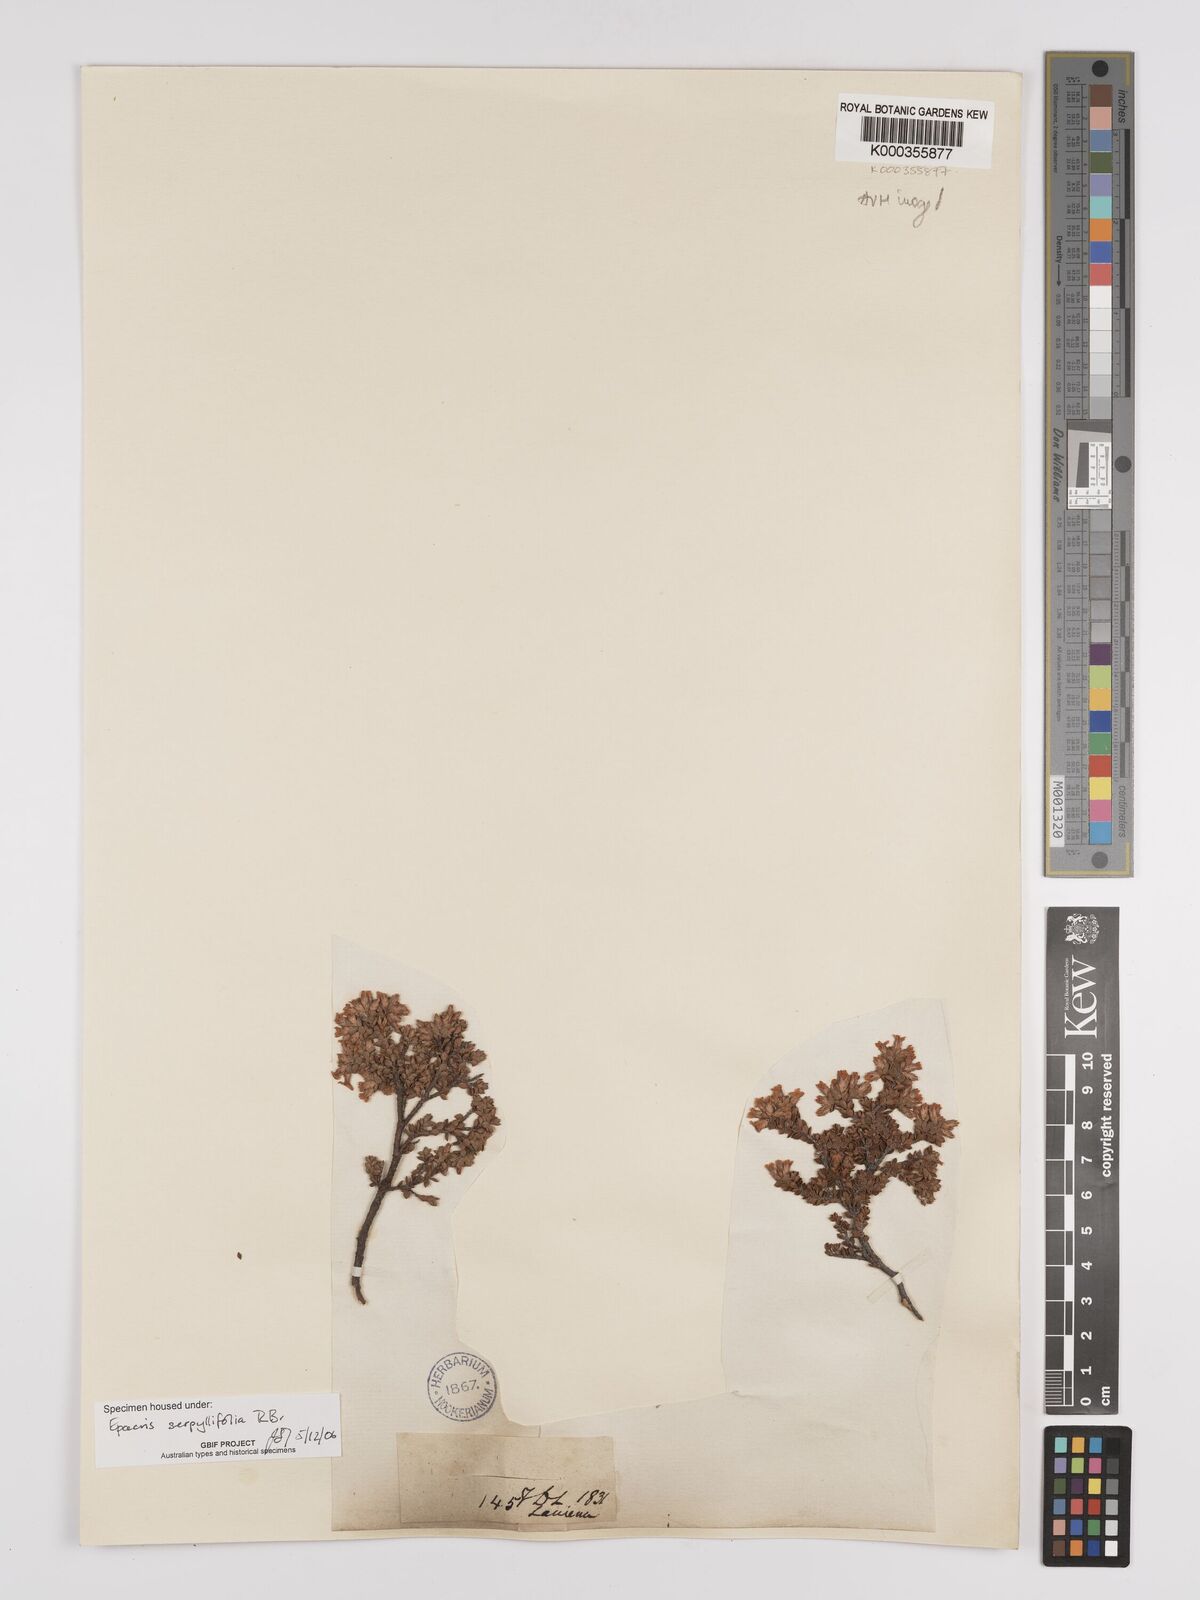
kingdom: Plantae
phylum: Tracheophyta
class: Magnoliopsida
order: Ericales
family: Ericaceae
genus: Epacris
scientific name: Epacris serpyllifolia
